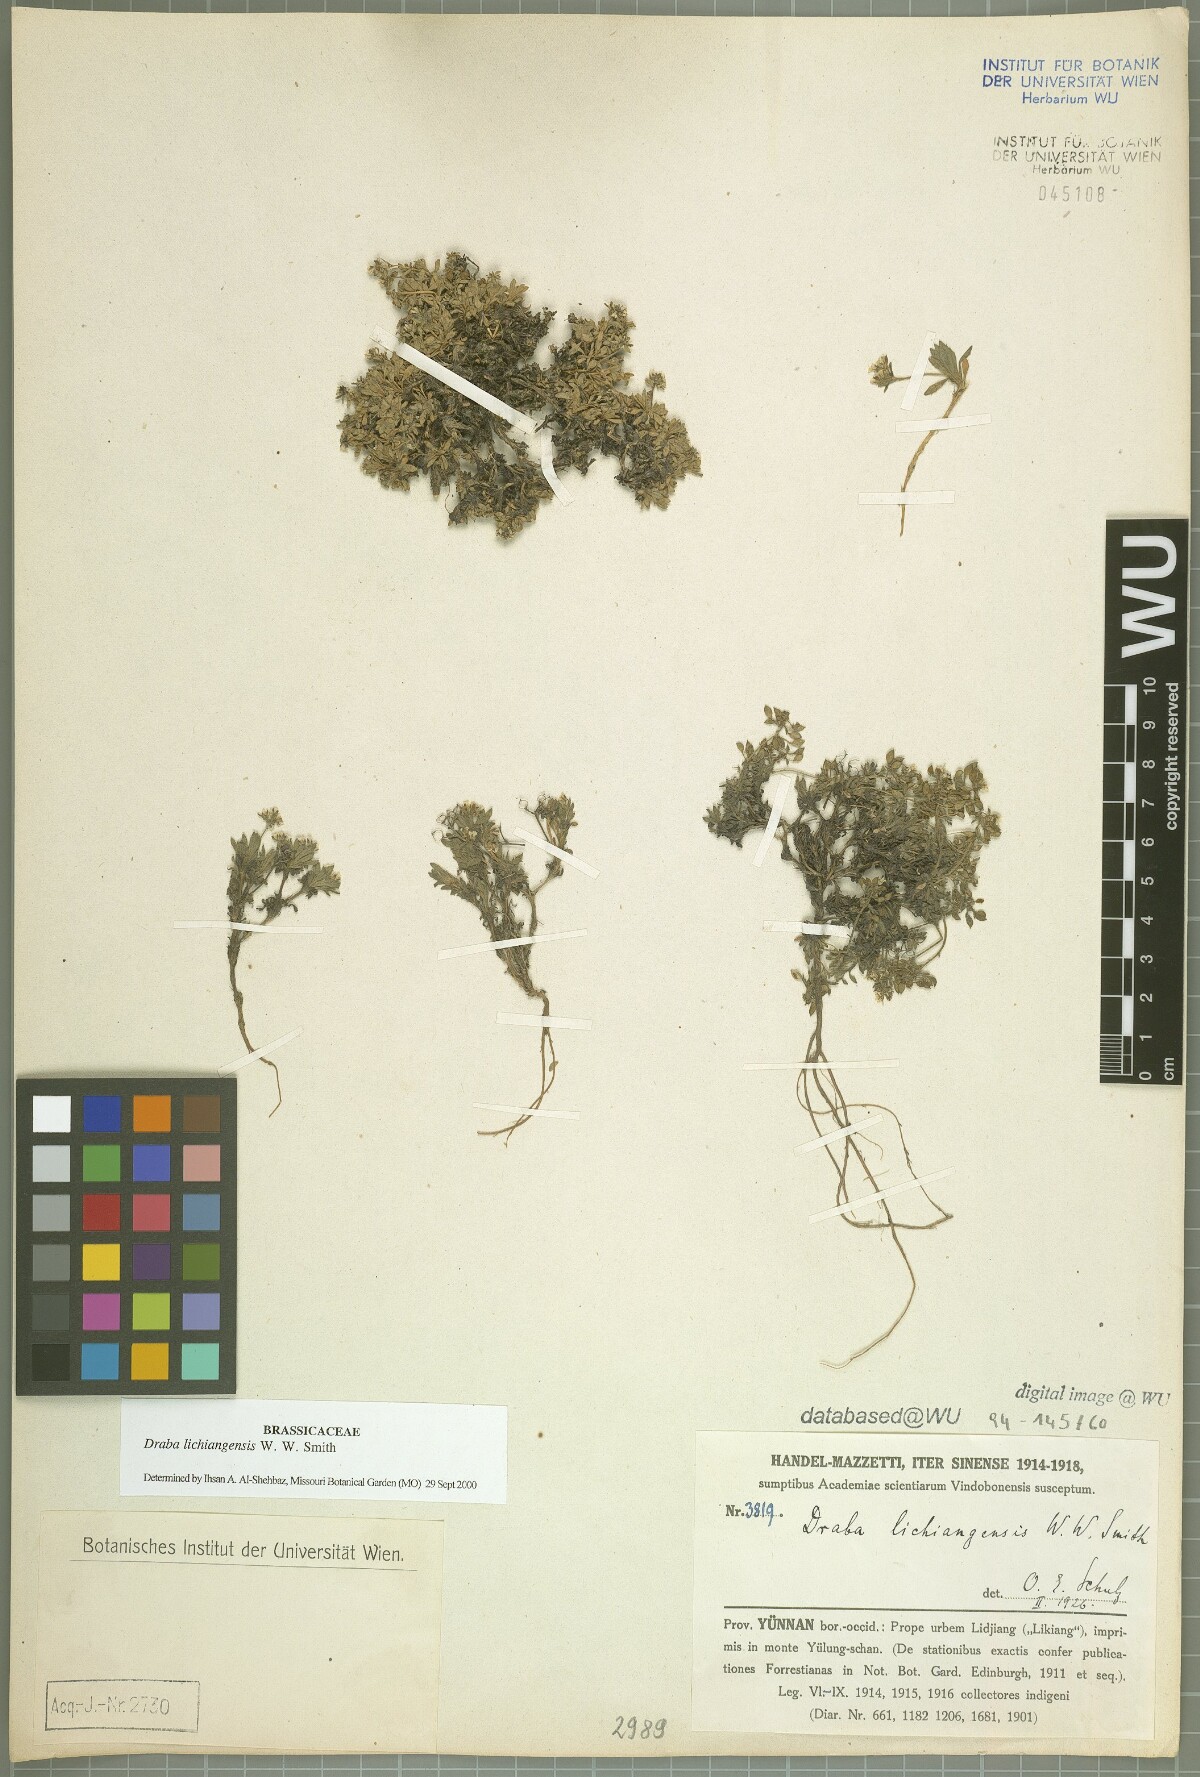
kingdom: Plantae
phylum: Tracheophyta
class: Magnoliopsida
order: Brassicales
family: Brassicaceae
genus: Draba
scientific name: Draba lichiangensis
